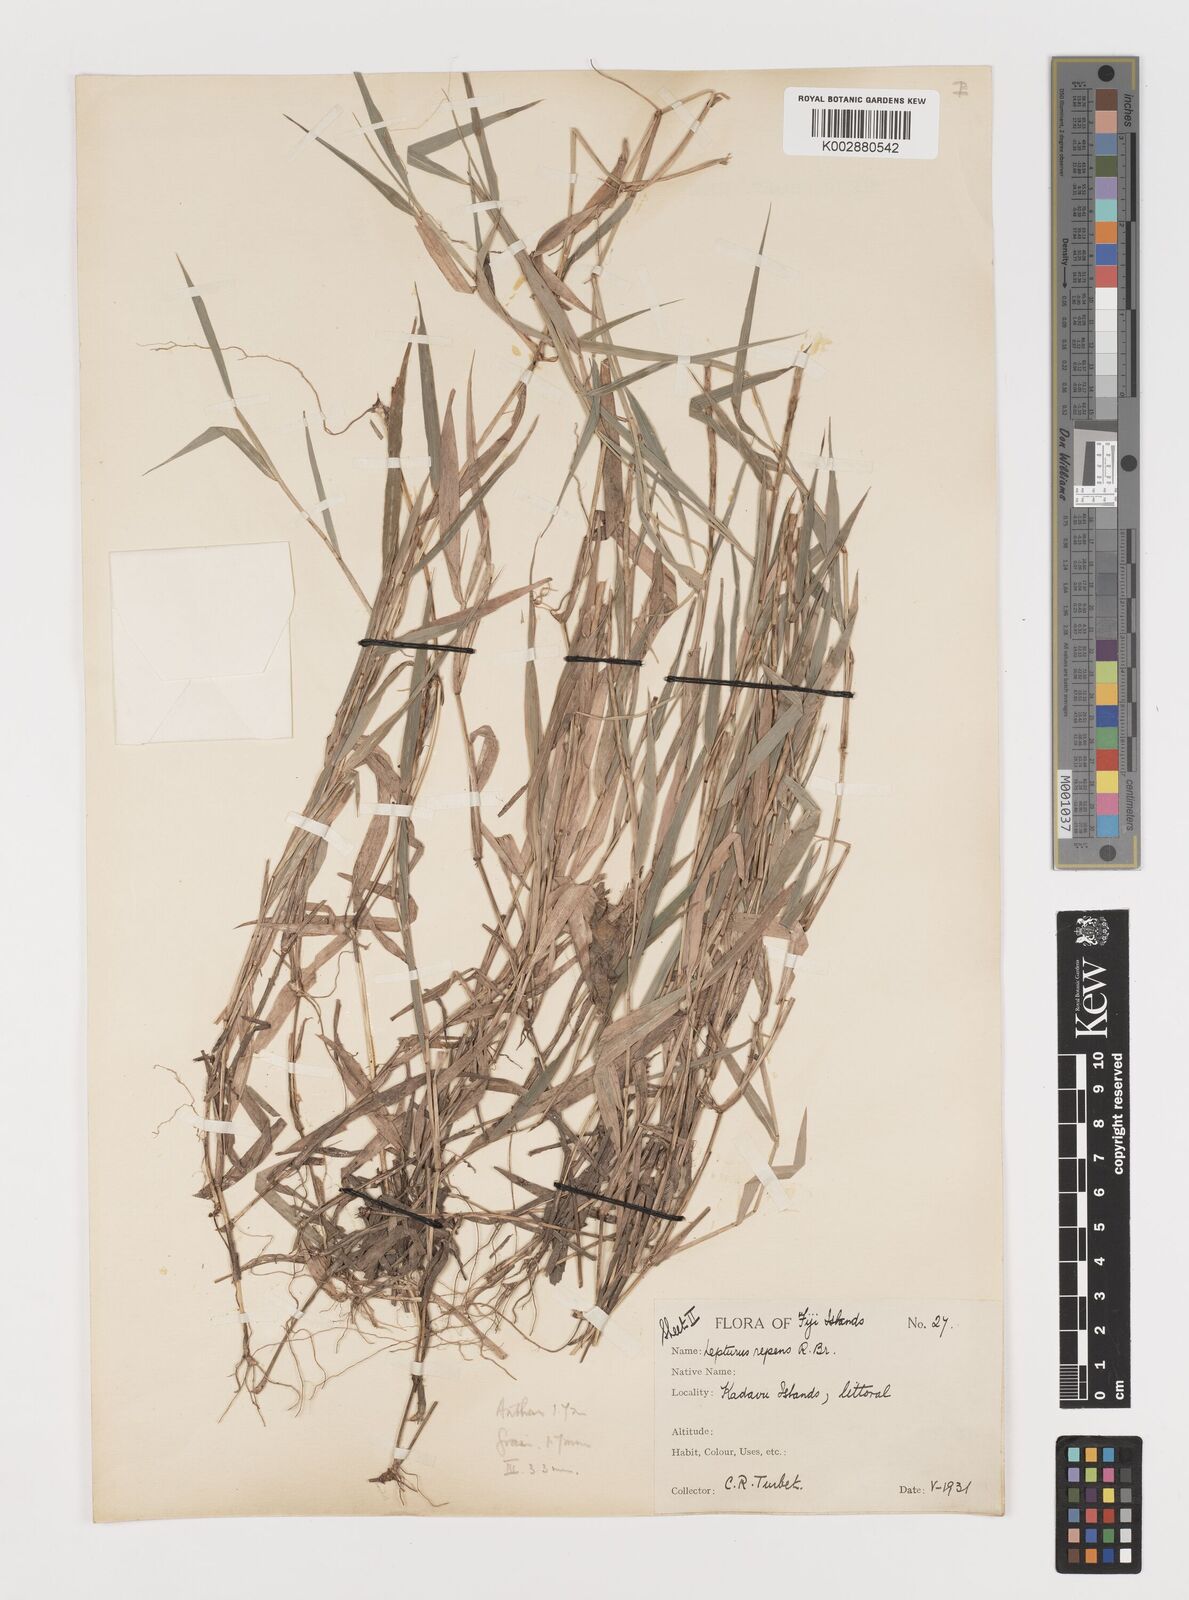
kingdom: Plantae
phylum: Tracheophyta
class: Liliopsida
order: Poales
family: Poaceae
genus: Lepturus
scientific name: Lepturus repens
